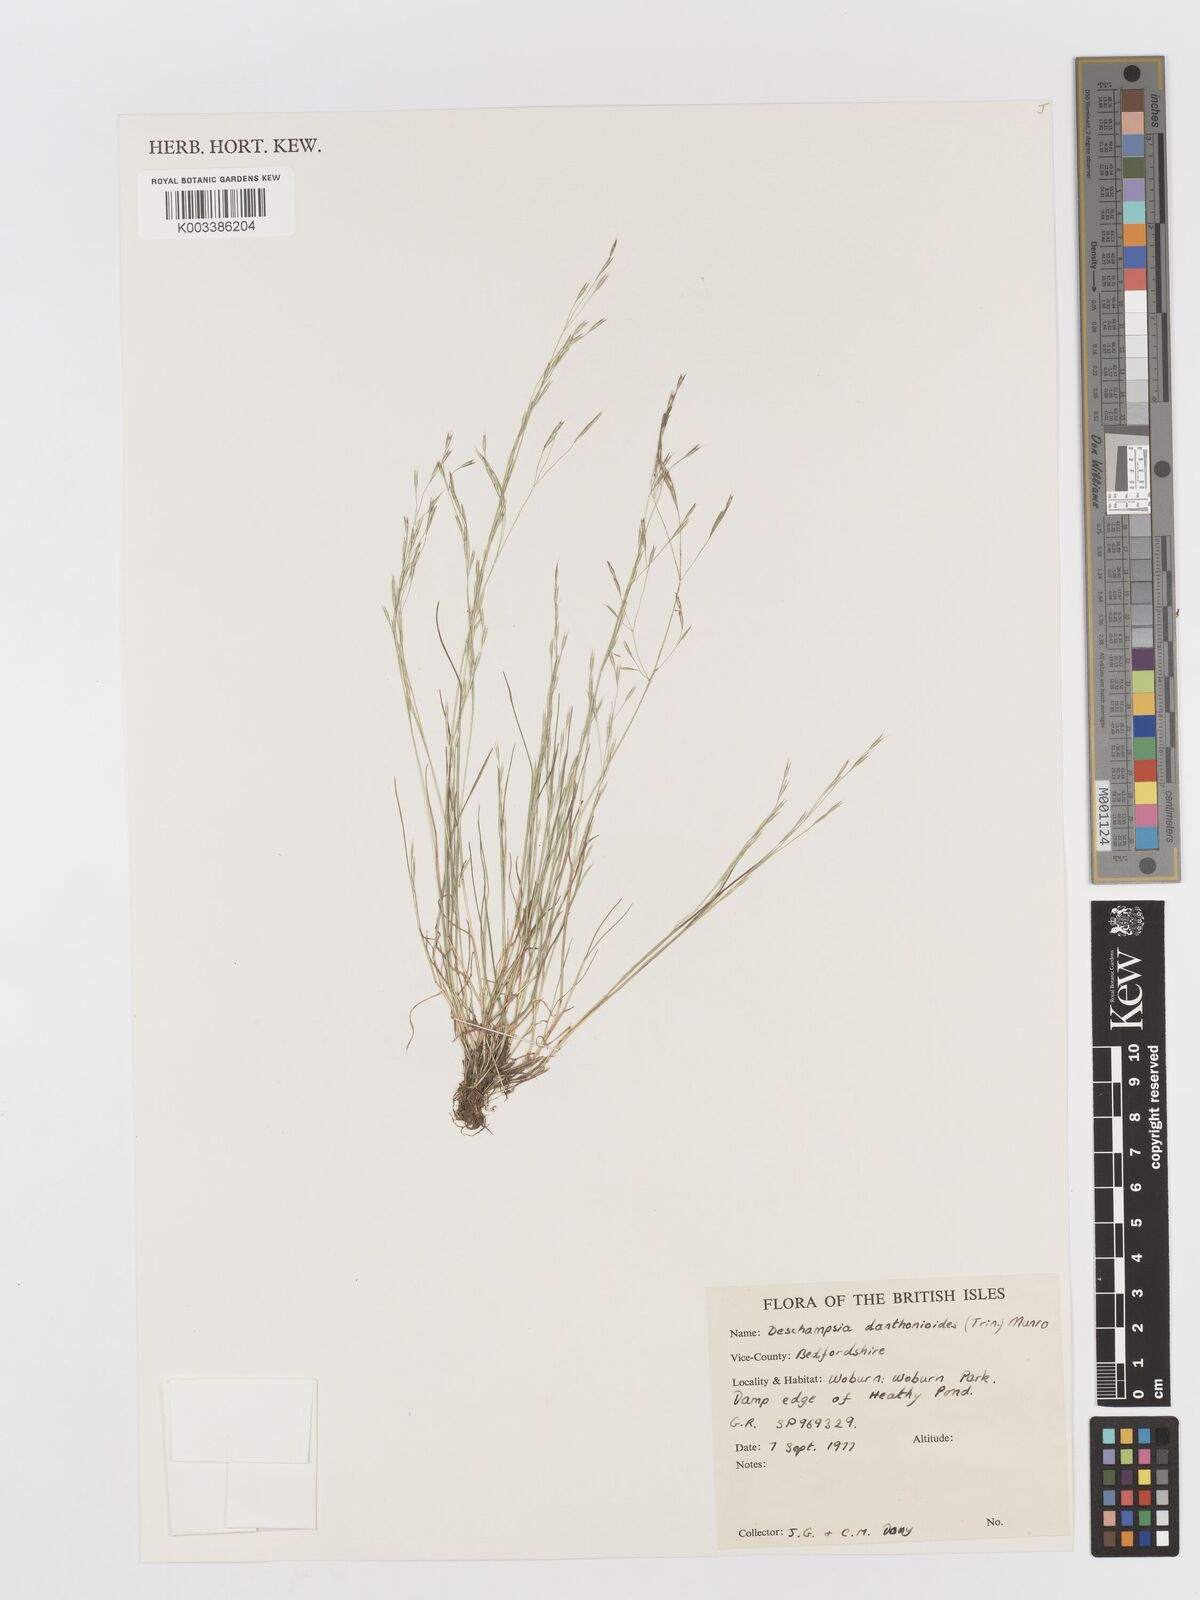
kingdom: Plantae
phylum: Tracheophyta
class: Liliopsida
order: Poales
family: Poaceae
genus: Deschampsia
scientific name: Deschampsia danthonioides
